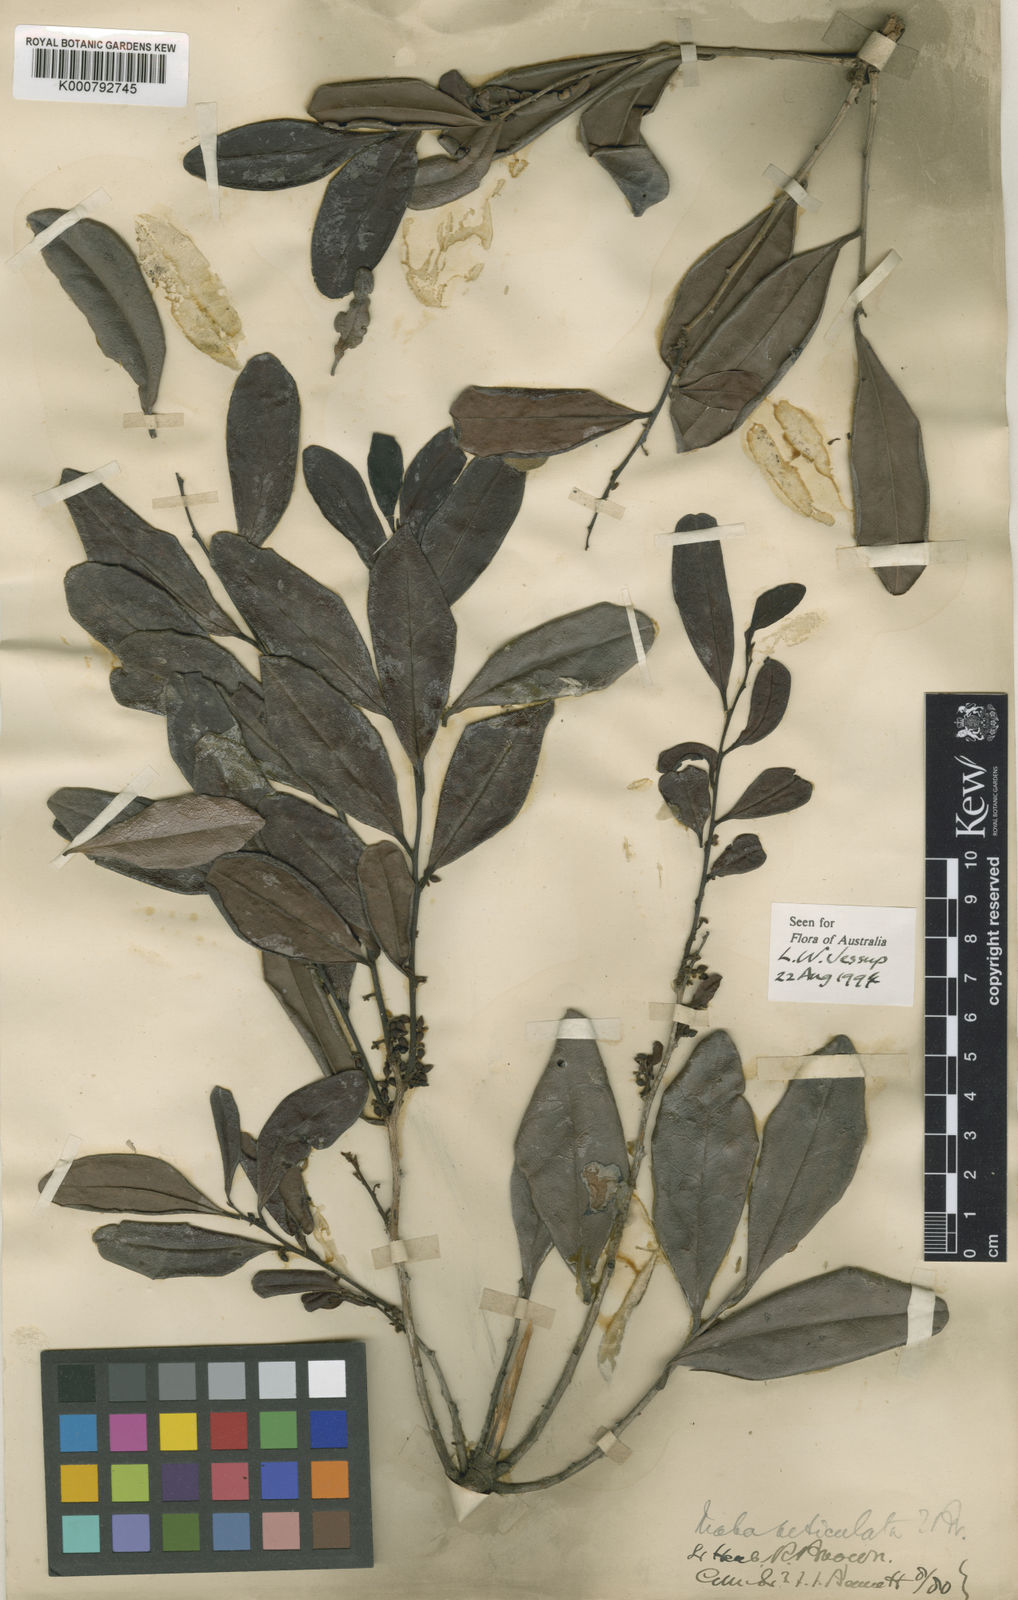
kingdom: Plantae
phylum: Tracheophyta
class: Magnoliopsida
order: Ericales
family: Ebenaceae
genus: Diospyros
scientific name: Diospyros compacta
